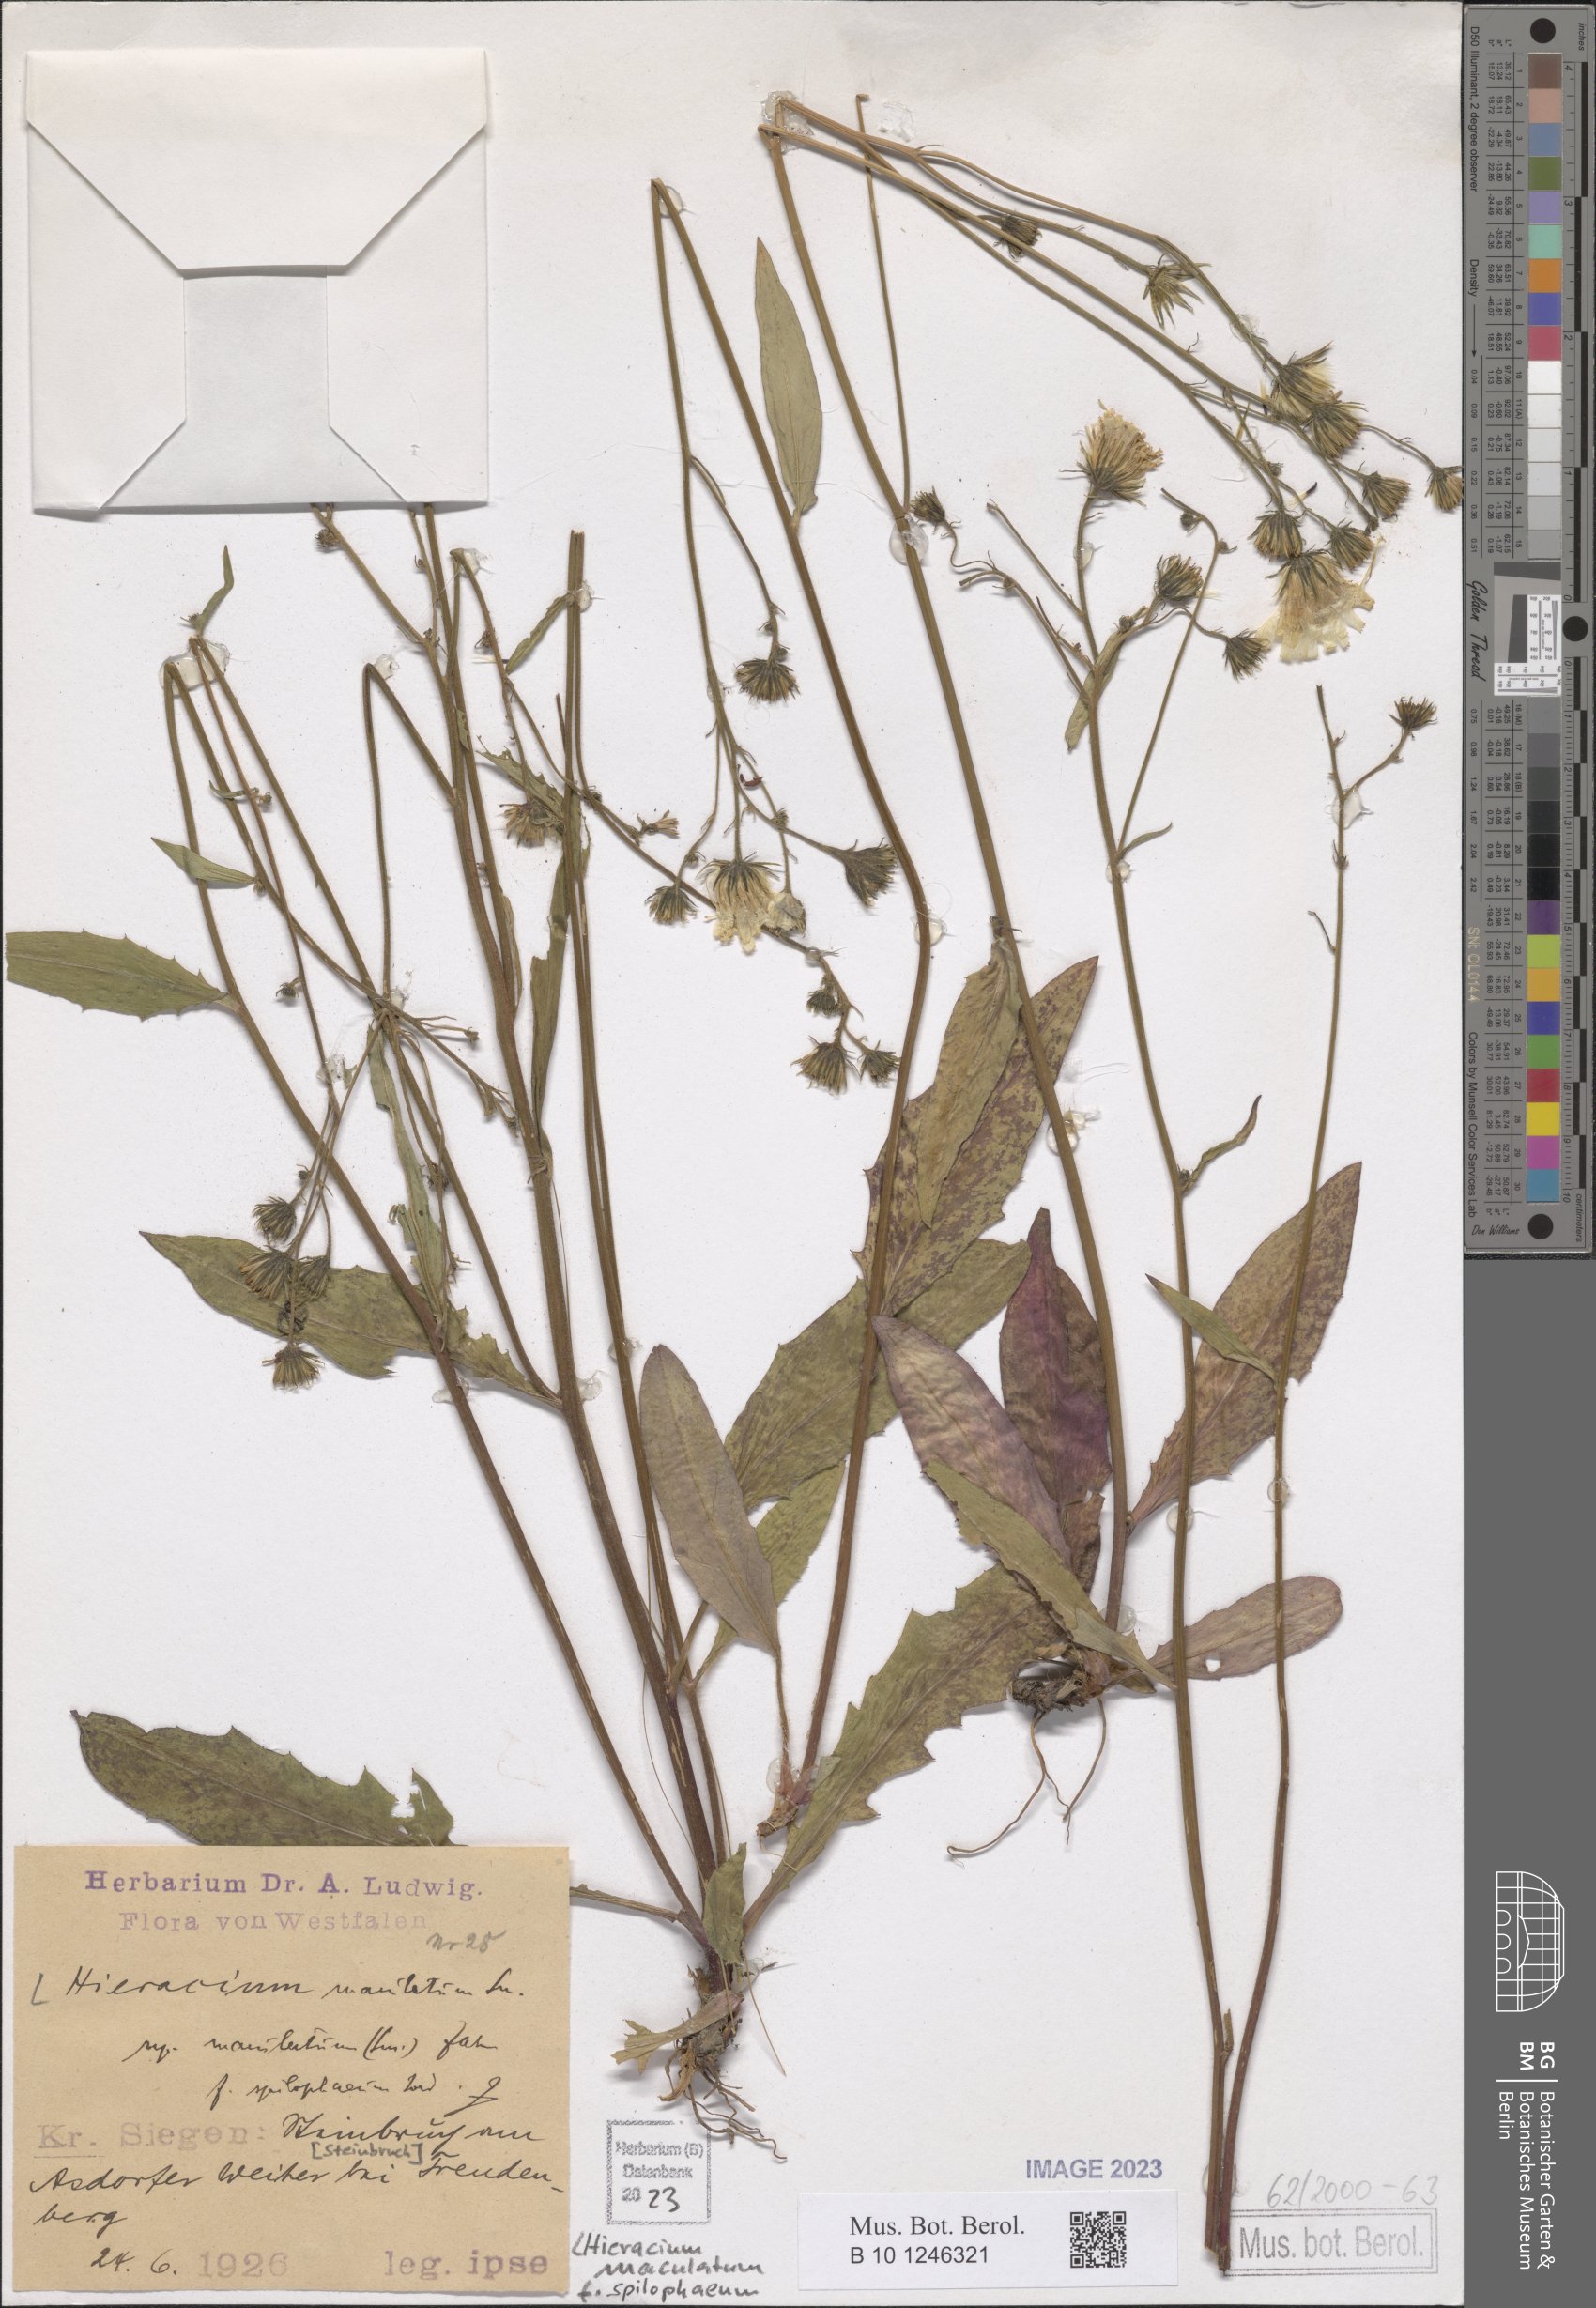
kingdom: Plantae
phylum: Tracheophyta
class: Magnoliopsida
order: Asterales
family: Asteraceae
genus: Hieracium
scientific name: Hieracium maculatum
